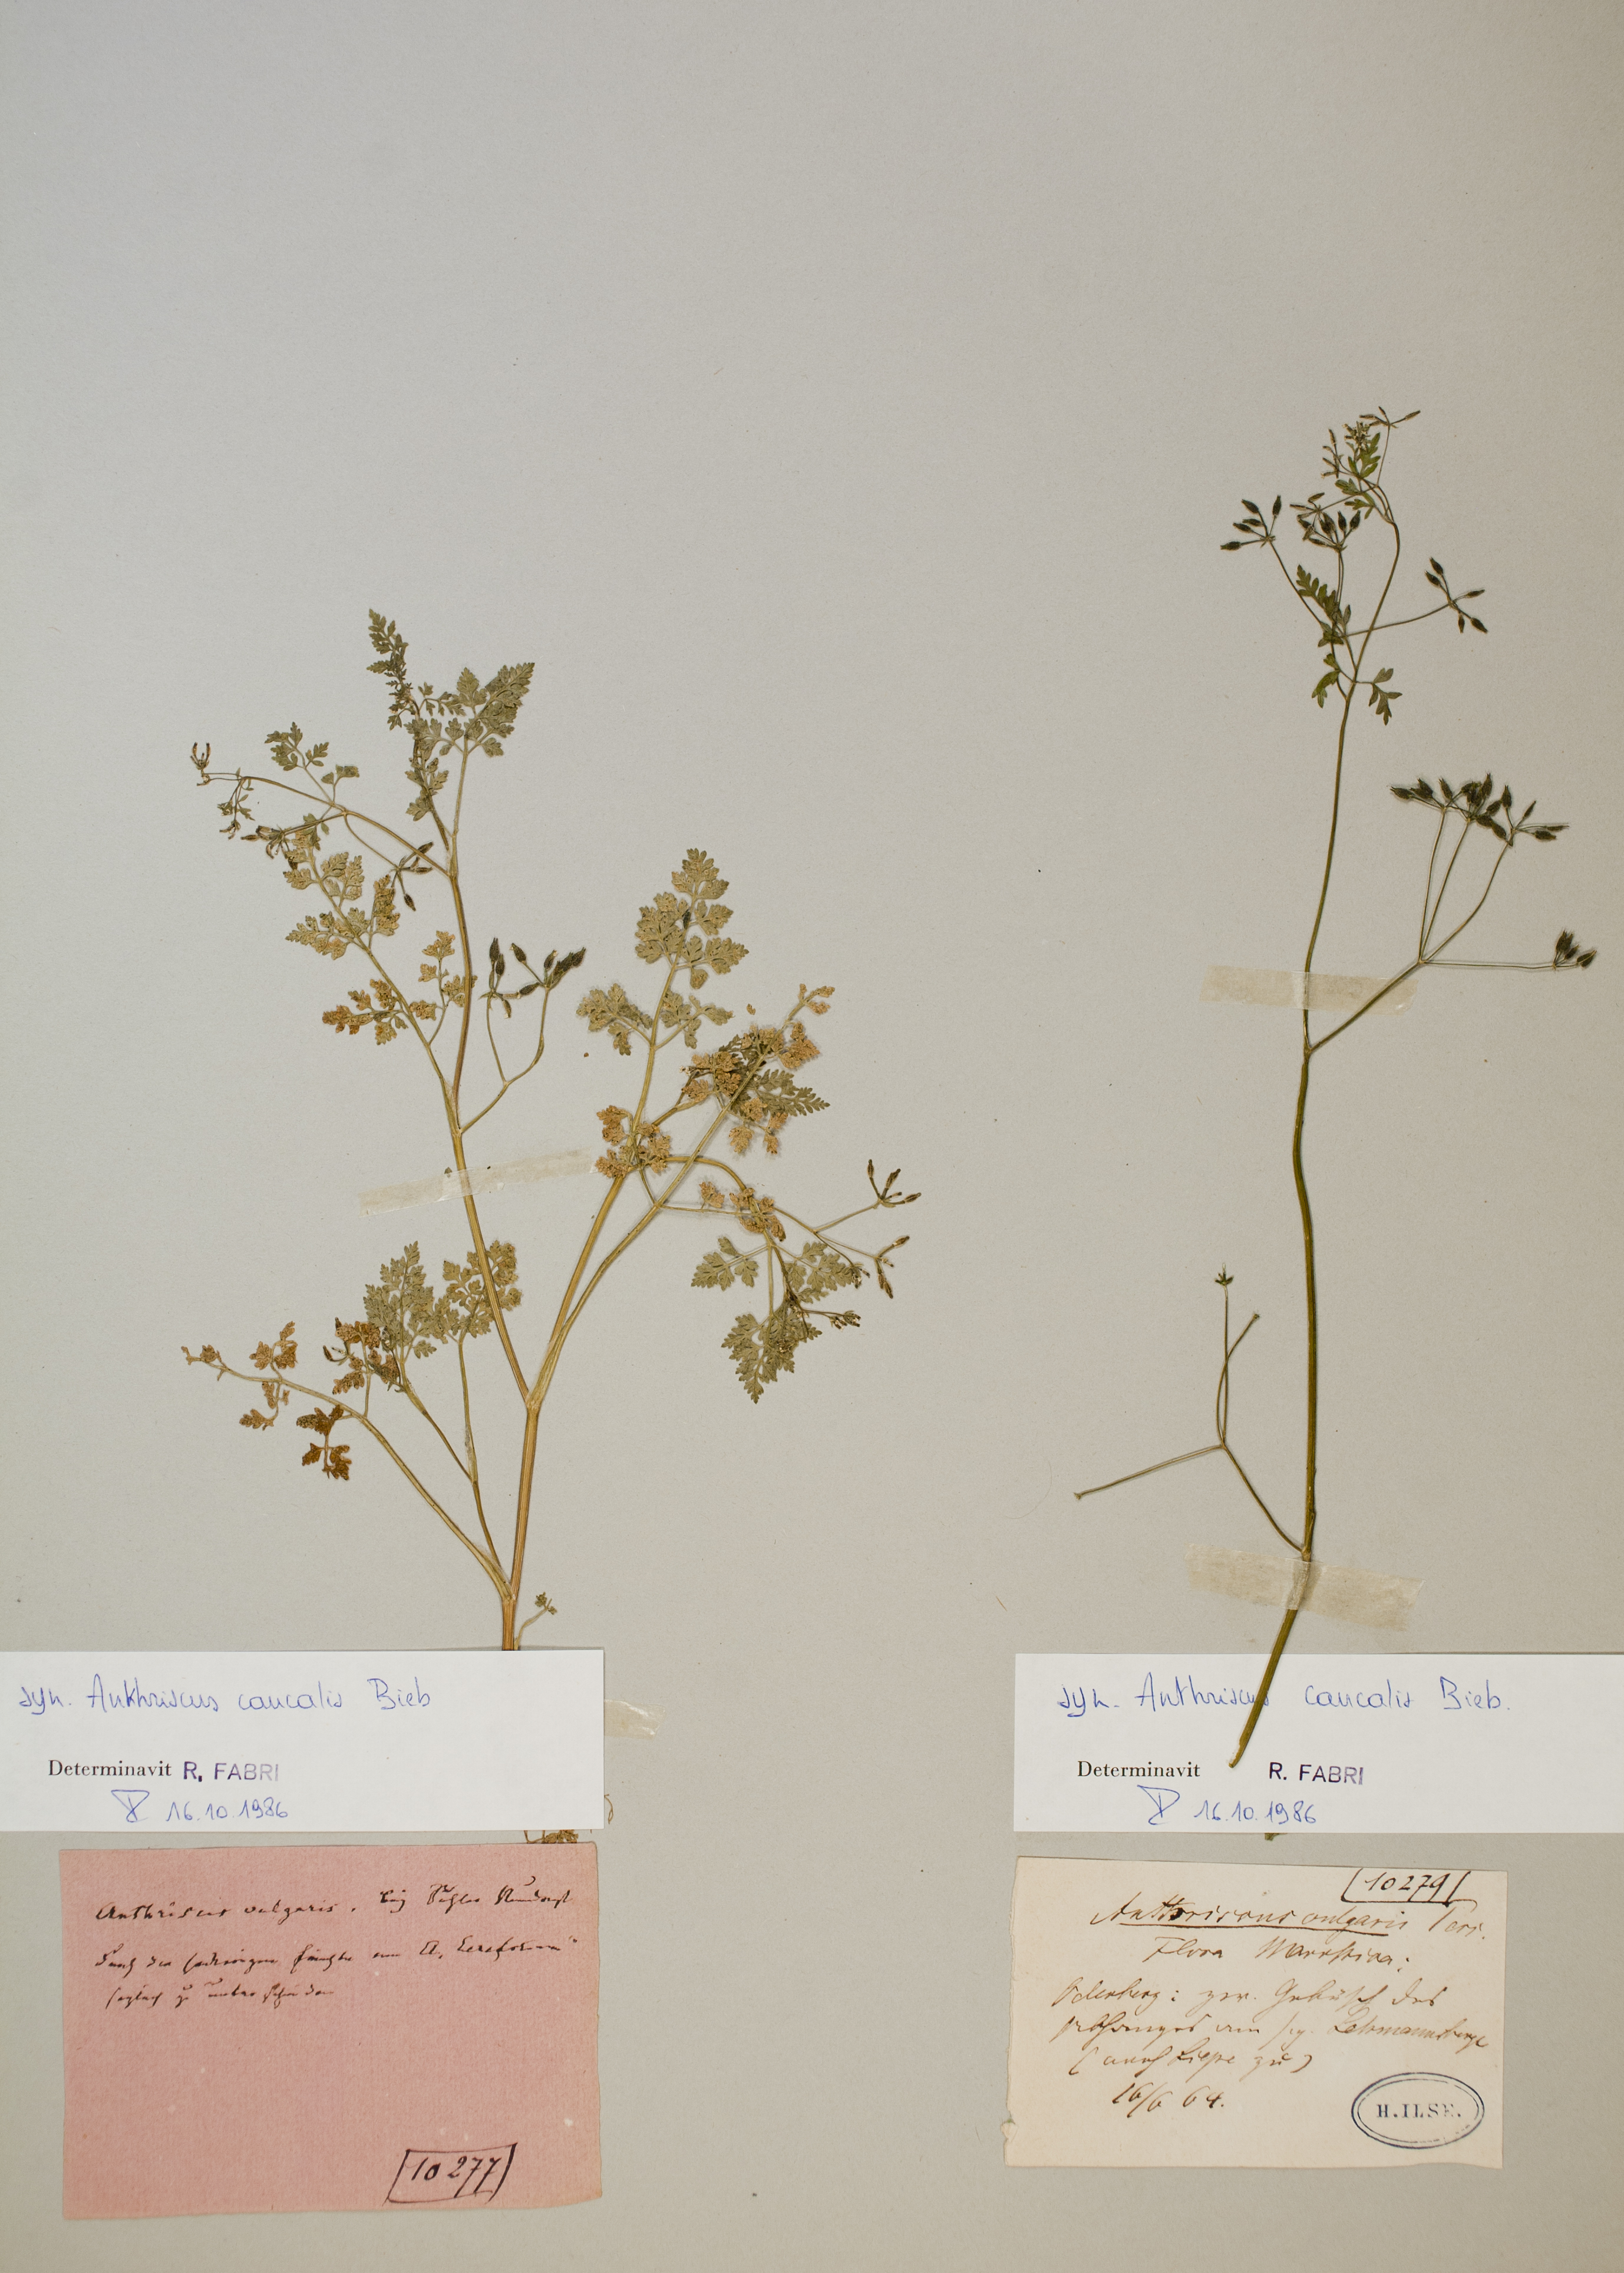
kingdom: Plantae
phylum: Tracheophyta
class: Magnoliopsida
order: Apiales
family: Apiaceae
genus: Anthriscus
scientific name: Anthriscus caucalis
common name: Bur chervil
